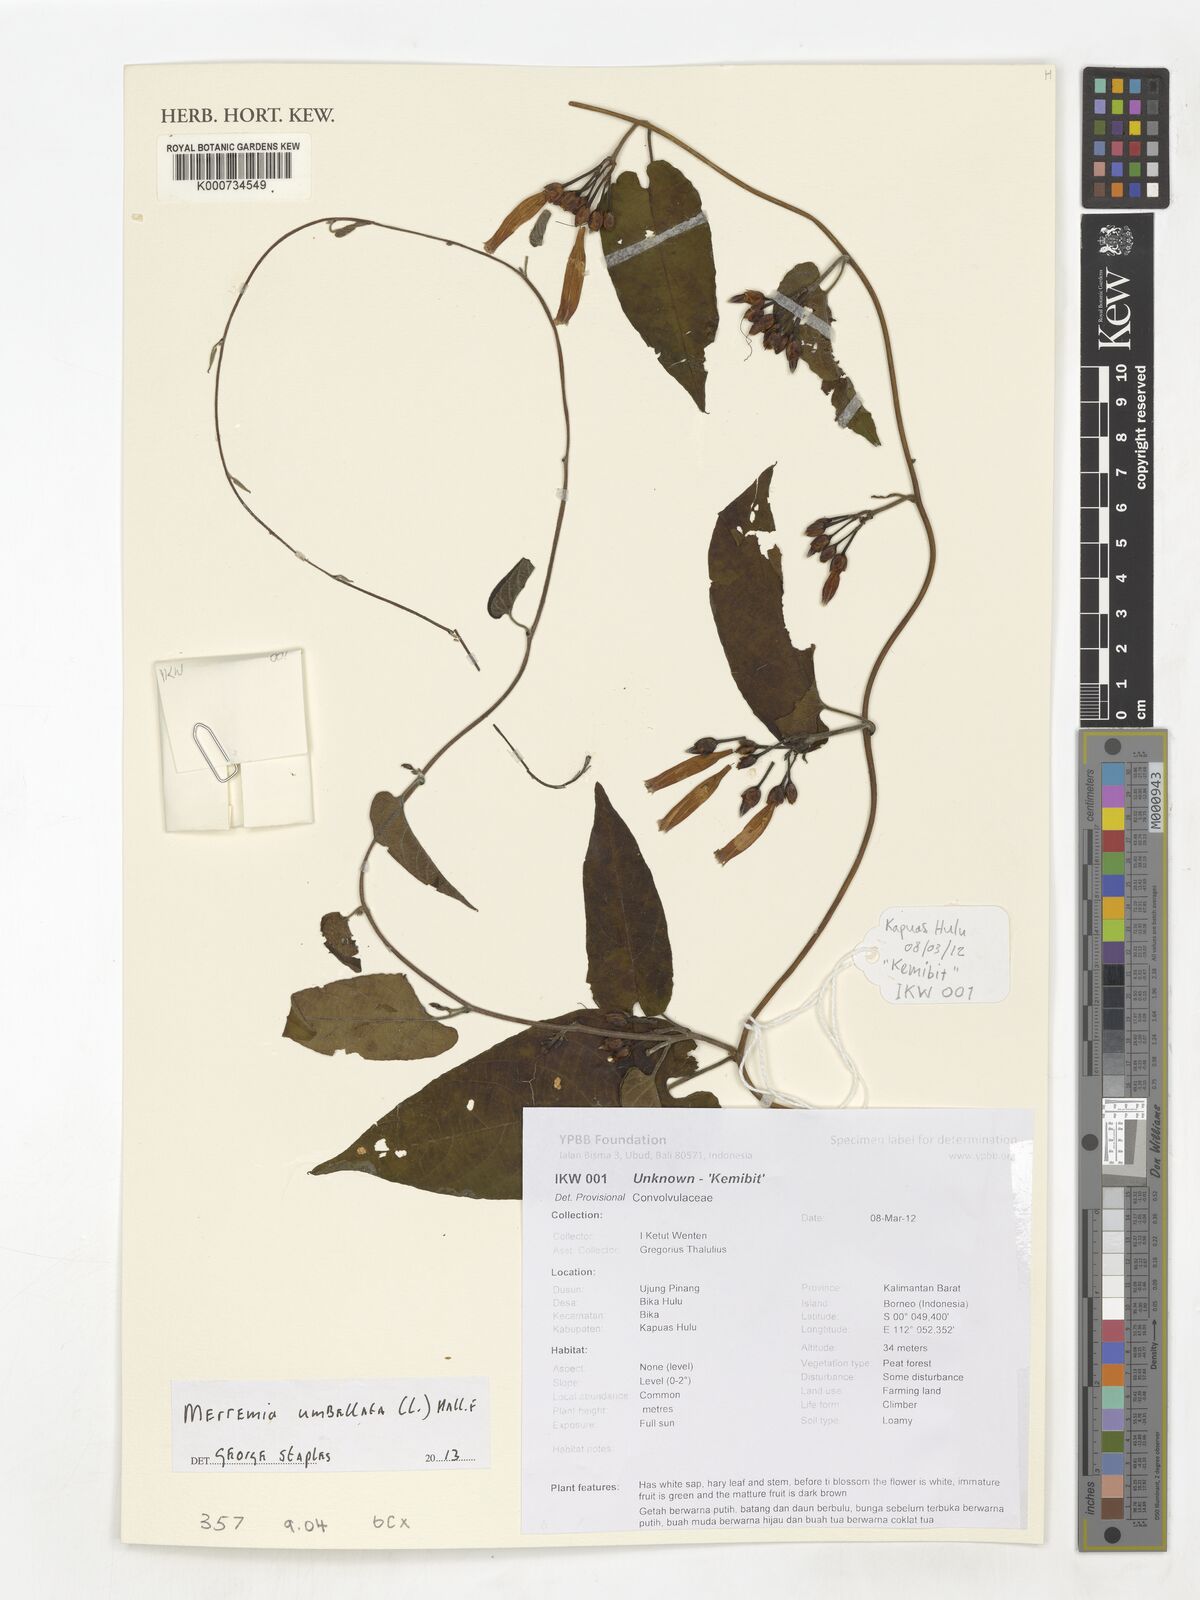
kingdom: Plantae
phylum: Tracheophyta
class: Magnoliopsida
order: Solanales
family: Convolvulaceae
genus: Camonea
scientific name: Camonea umbellata
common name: Hogvine
